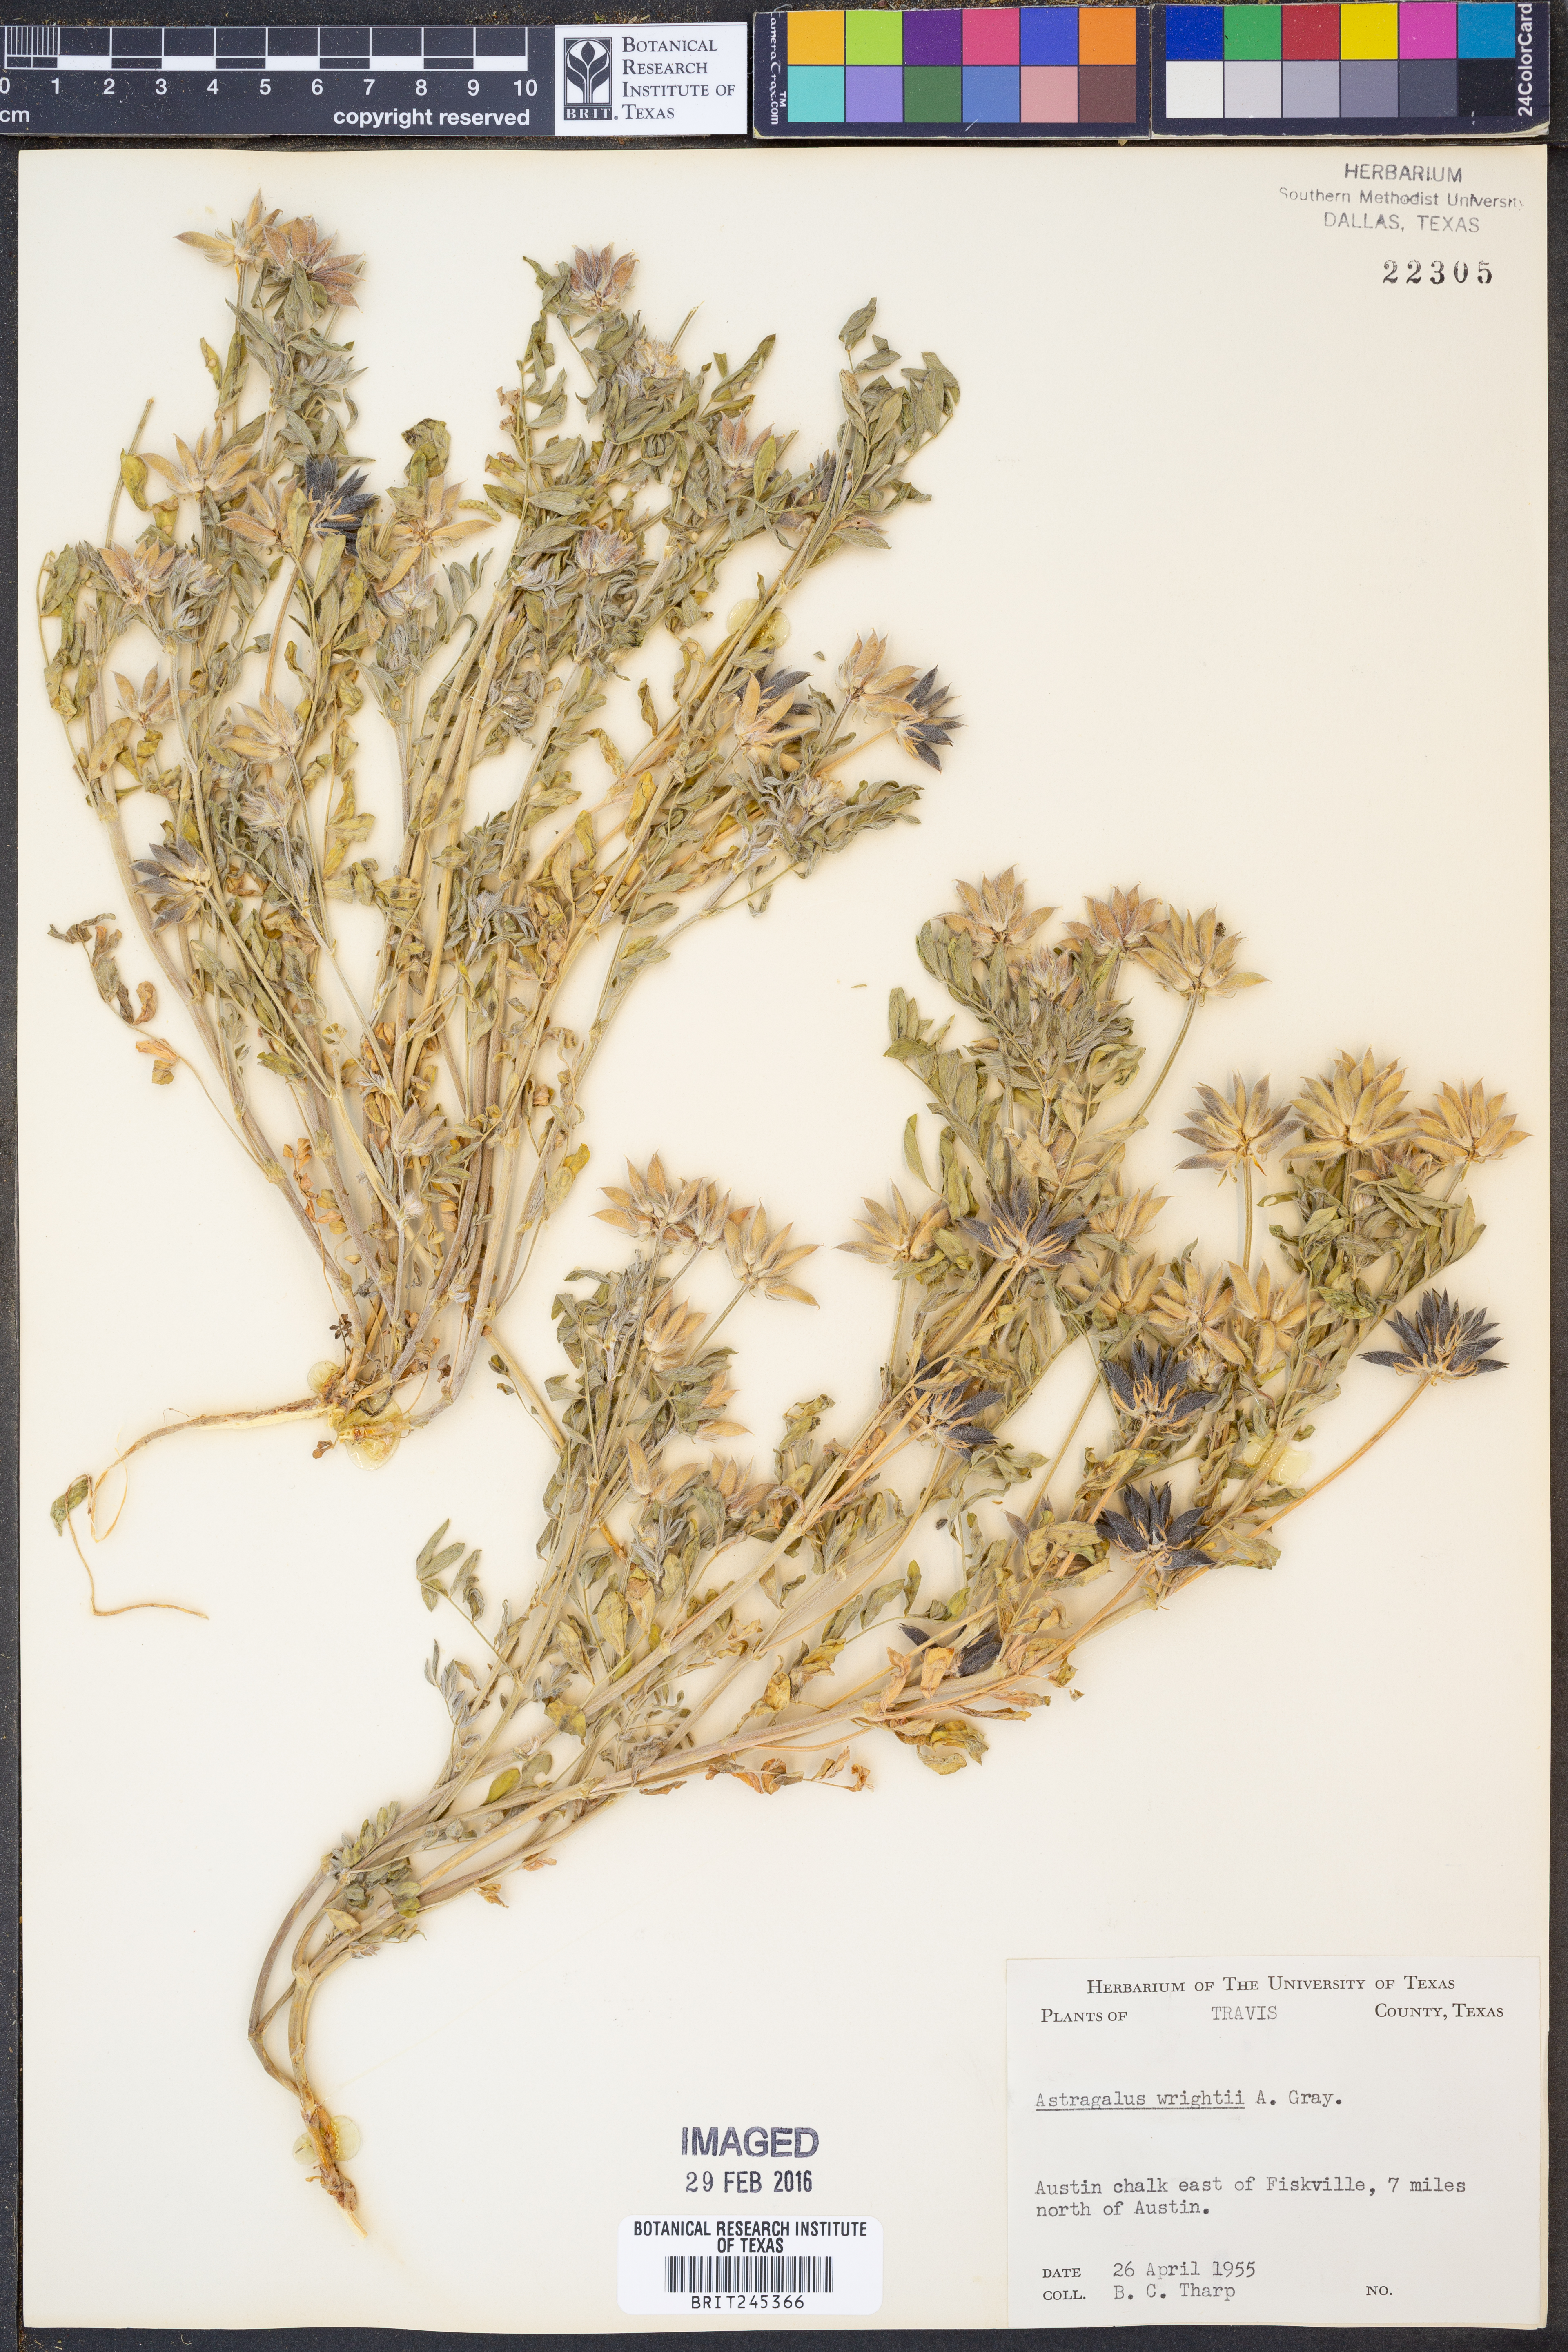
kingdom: Plantae
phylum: Tracheophyta
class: Magnoliopsida
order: Fabales
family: Fabaceae
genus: Astragalus
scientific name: Astragalus wrightii
